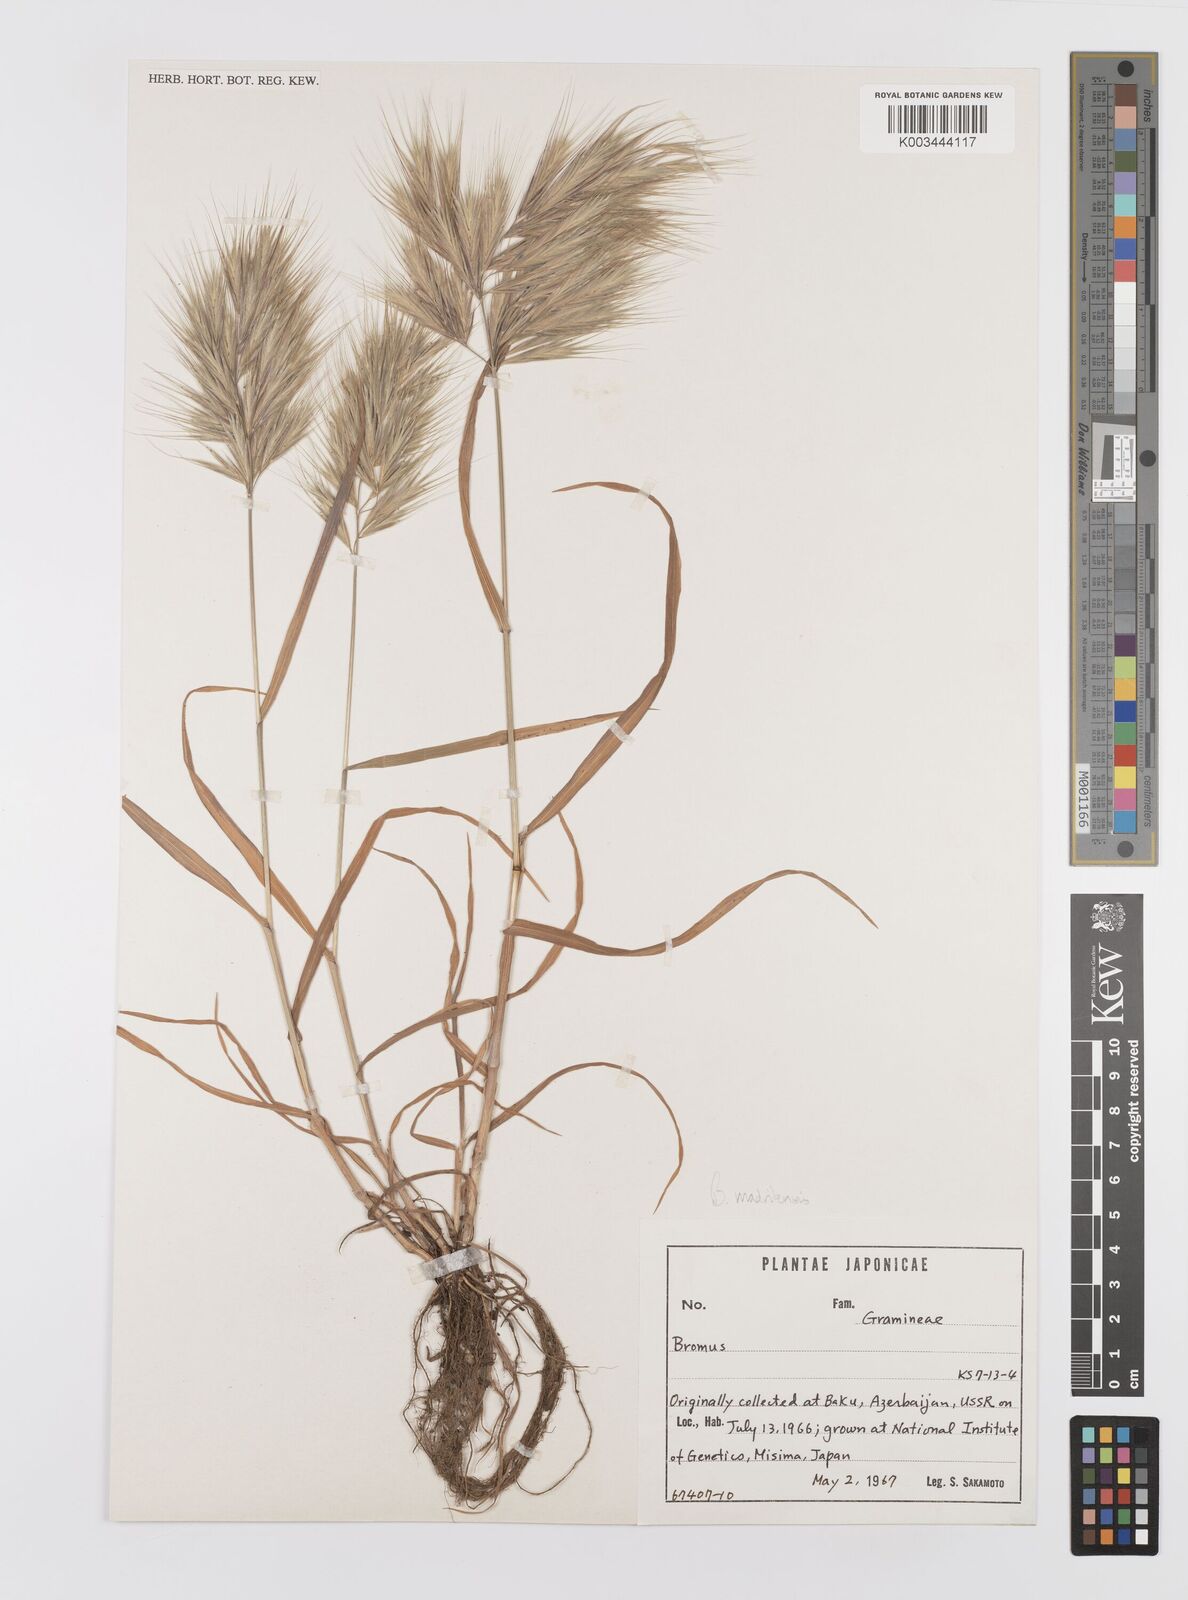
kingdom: Plantae
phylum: Tracheophyta
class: Liliopsida
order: Poales
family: Poaceae
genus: Bromus
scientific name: Bromus madritensis
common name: Compact brome
